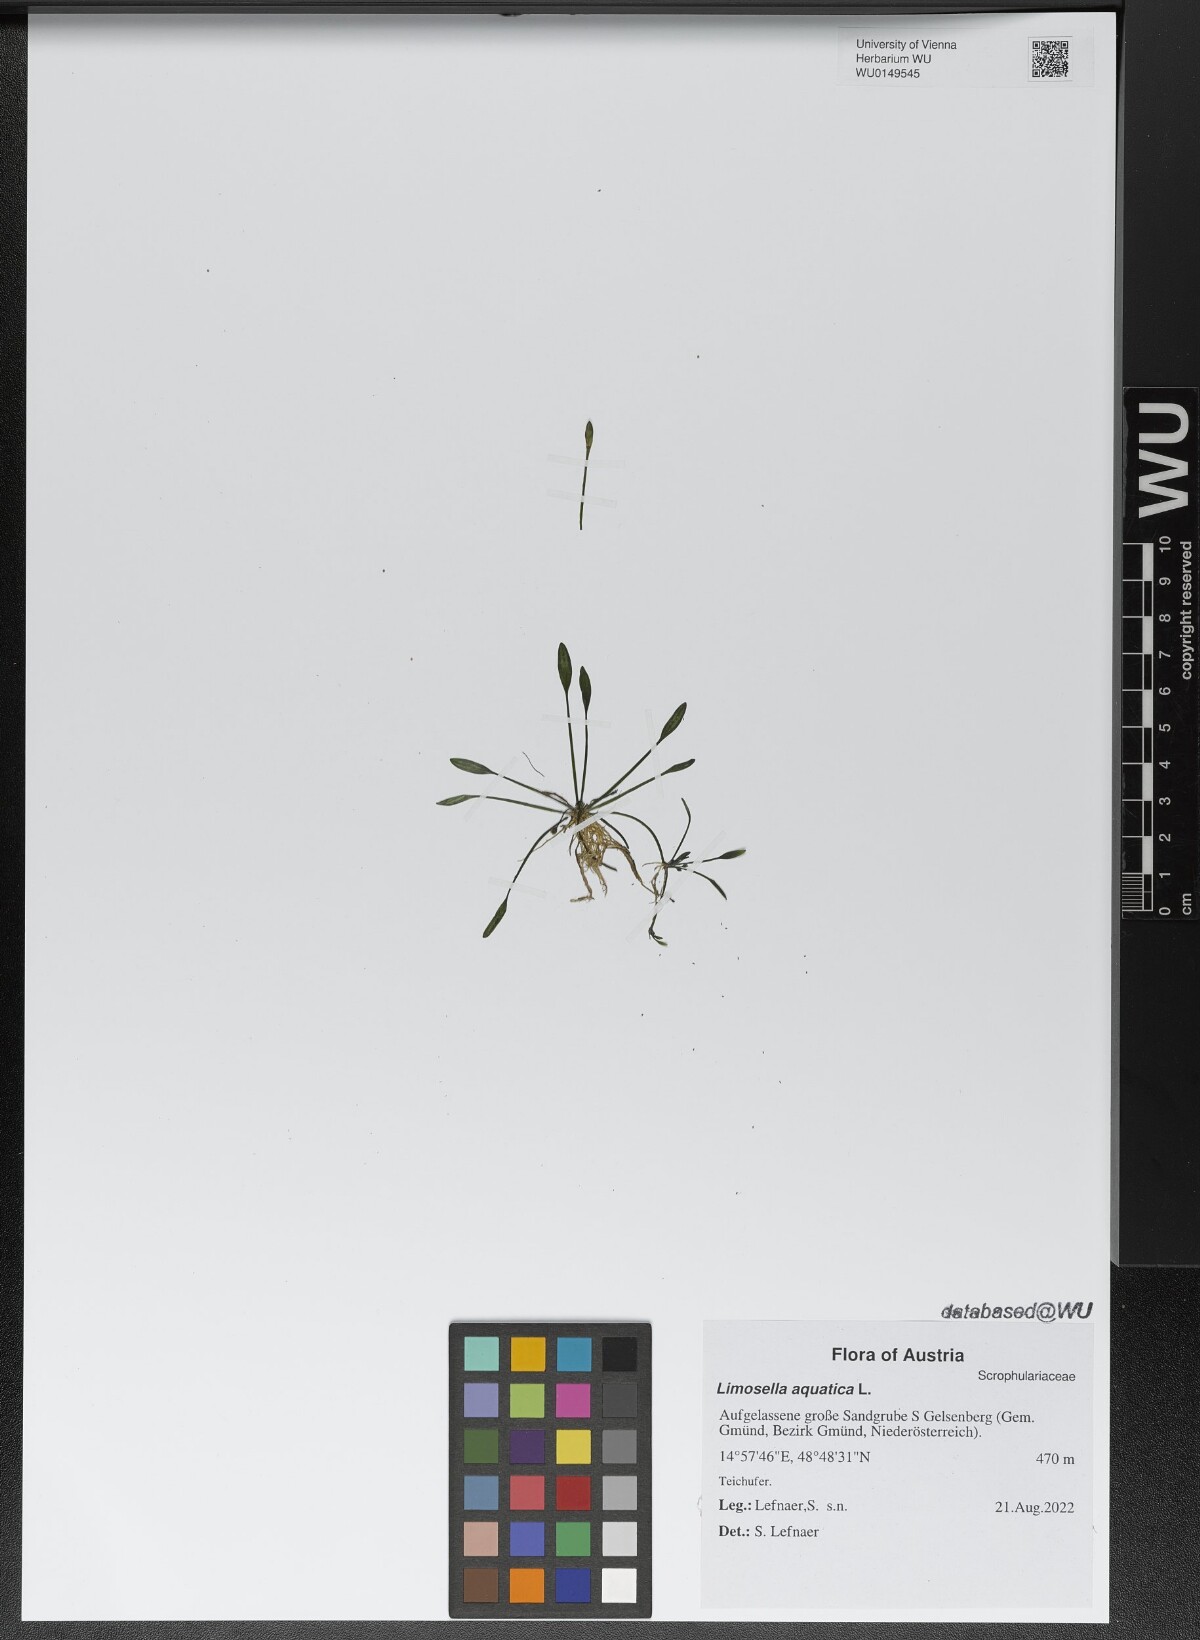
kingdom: Plantae
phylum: Tracheophyta
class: Magnoliopsida
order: Lamiales
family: Scrophulariaceae
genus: Limosella
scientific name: Limosella aquatica
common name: Mudwort
